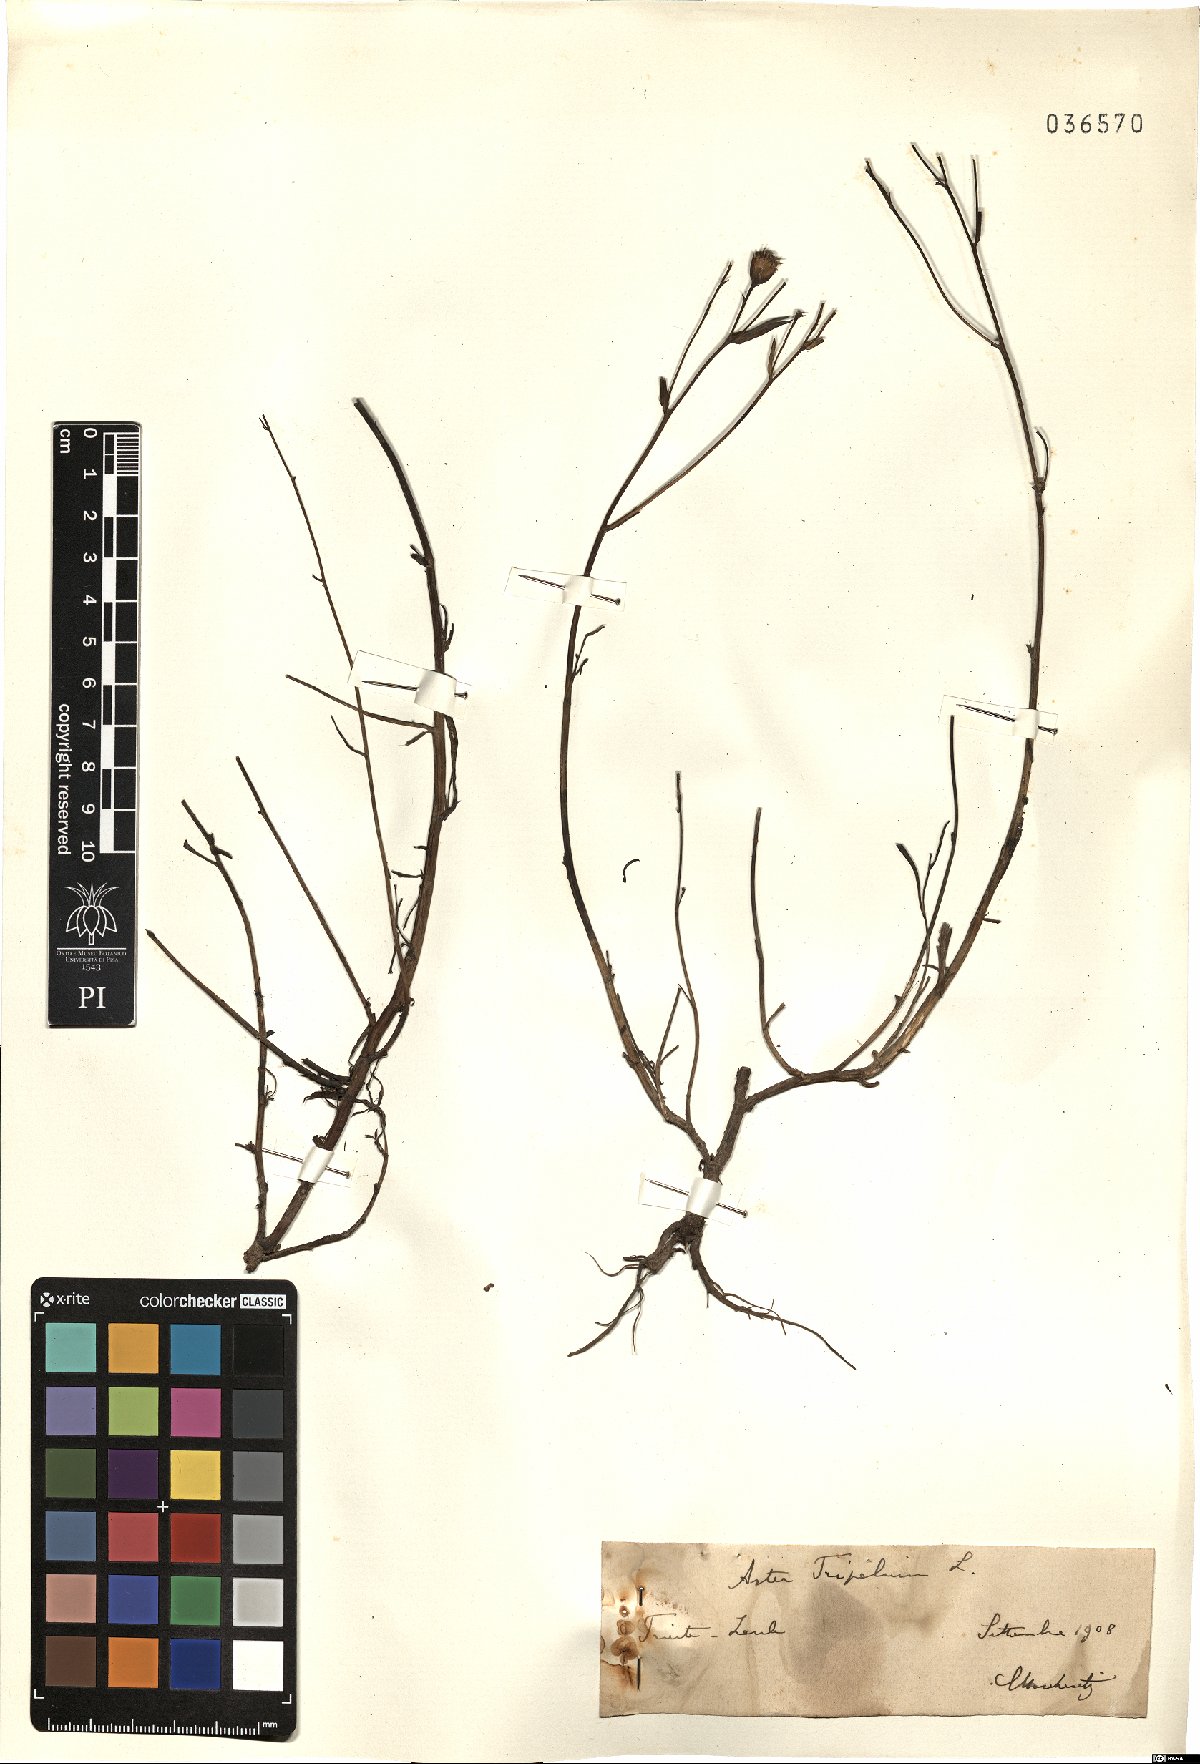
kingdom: Plantae
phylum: Tracheophyta
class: Magnoliopsida
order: Asterales
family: Asteraceae
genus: Tripolium
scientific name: Tripolium pannonicum
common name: Sea aster
